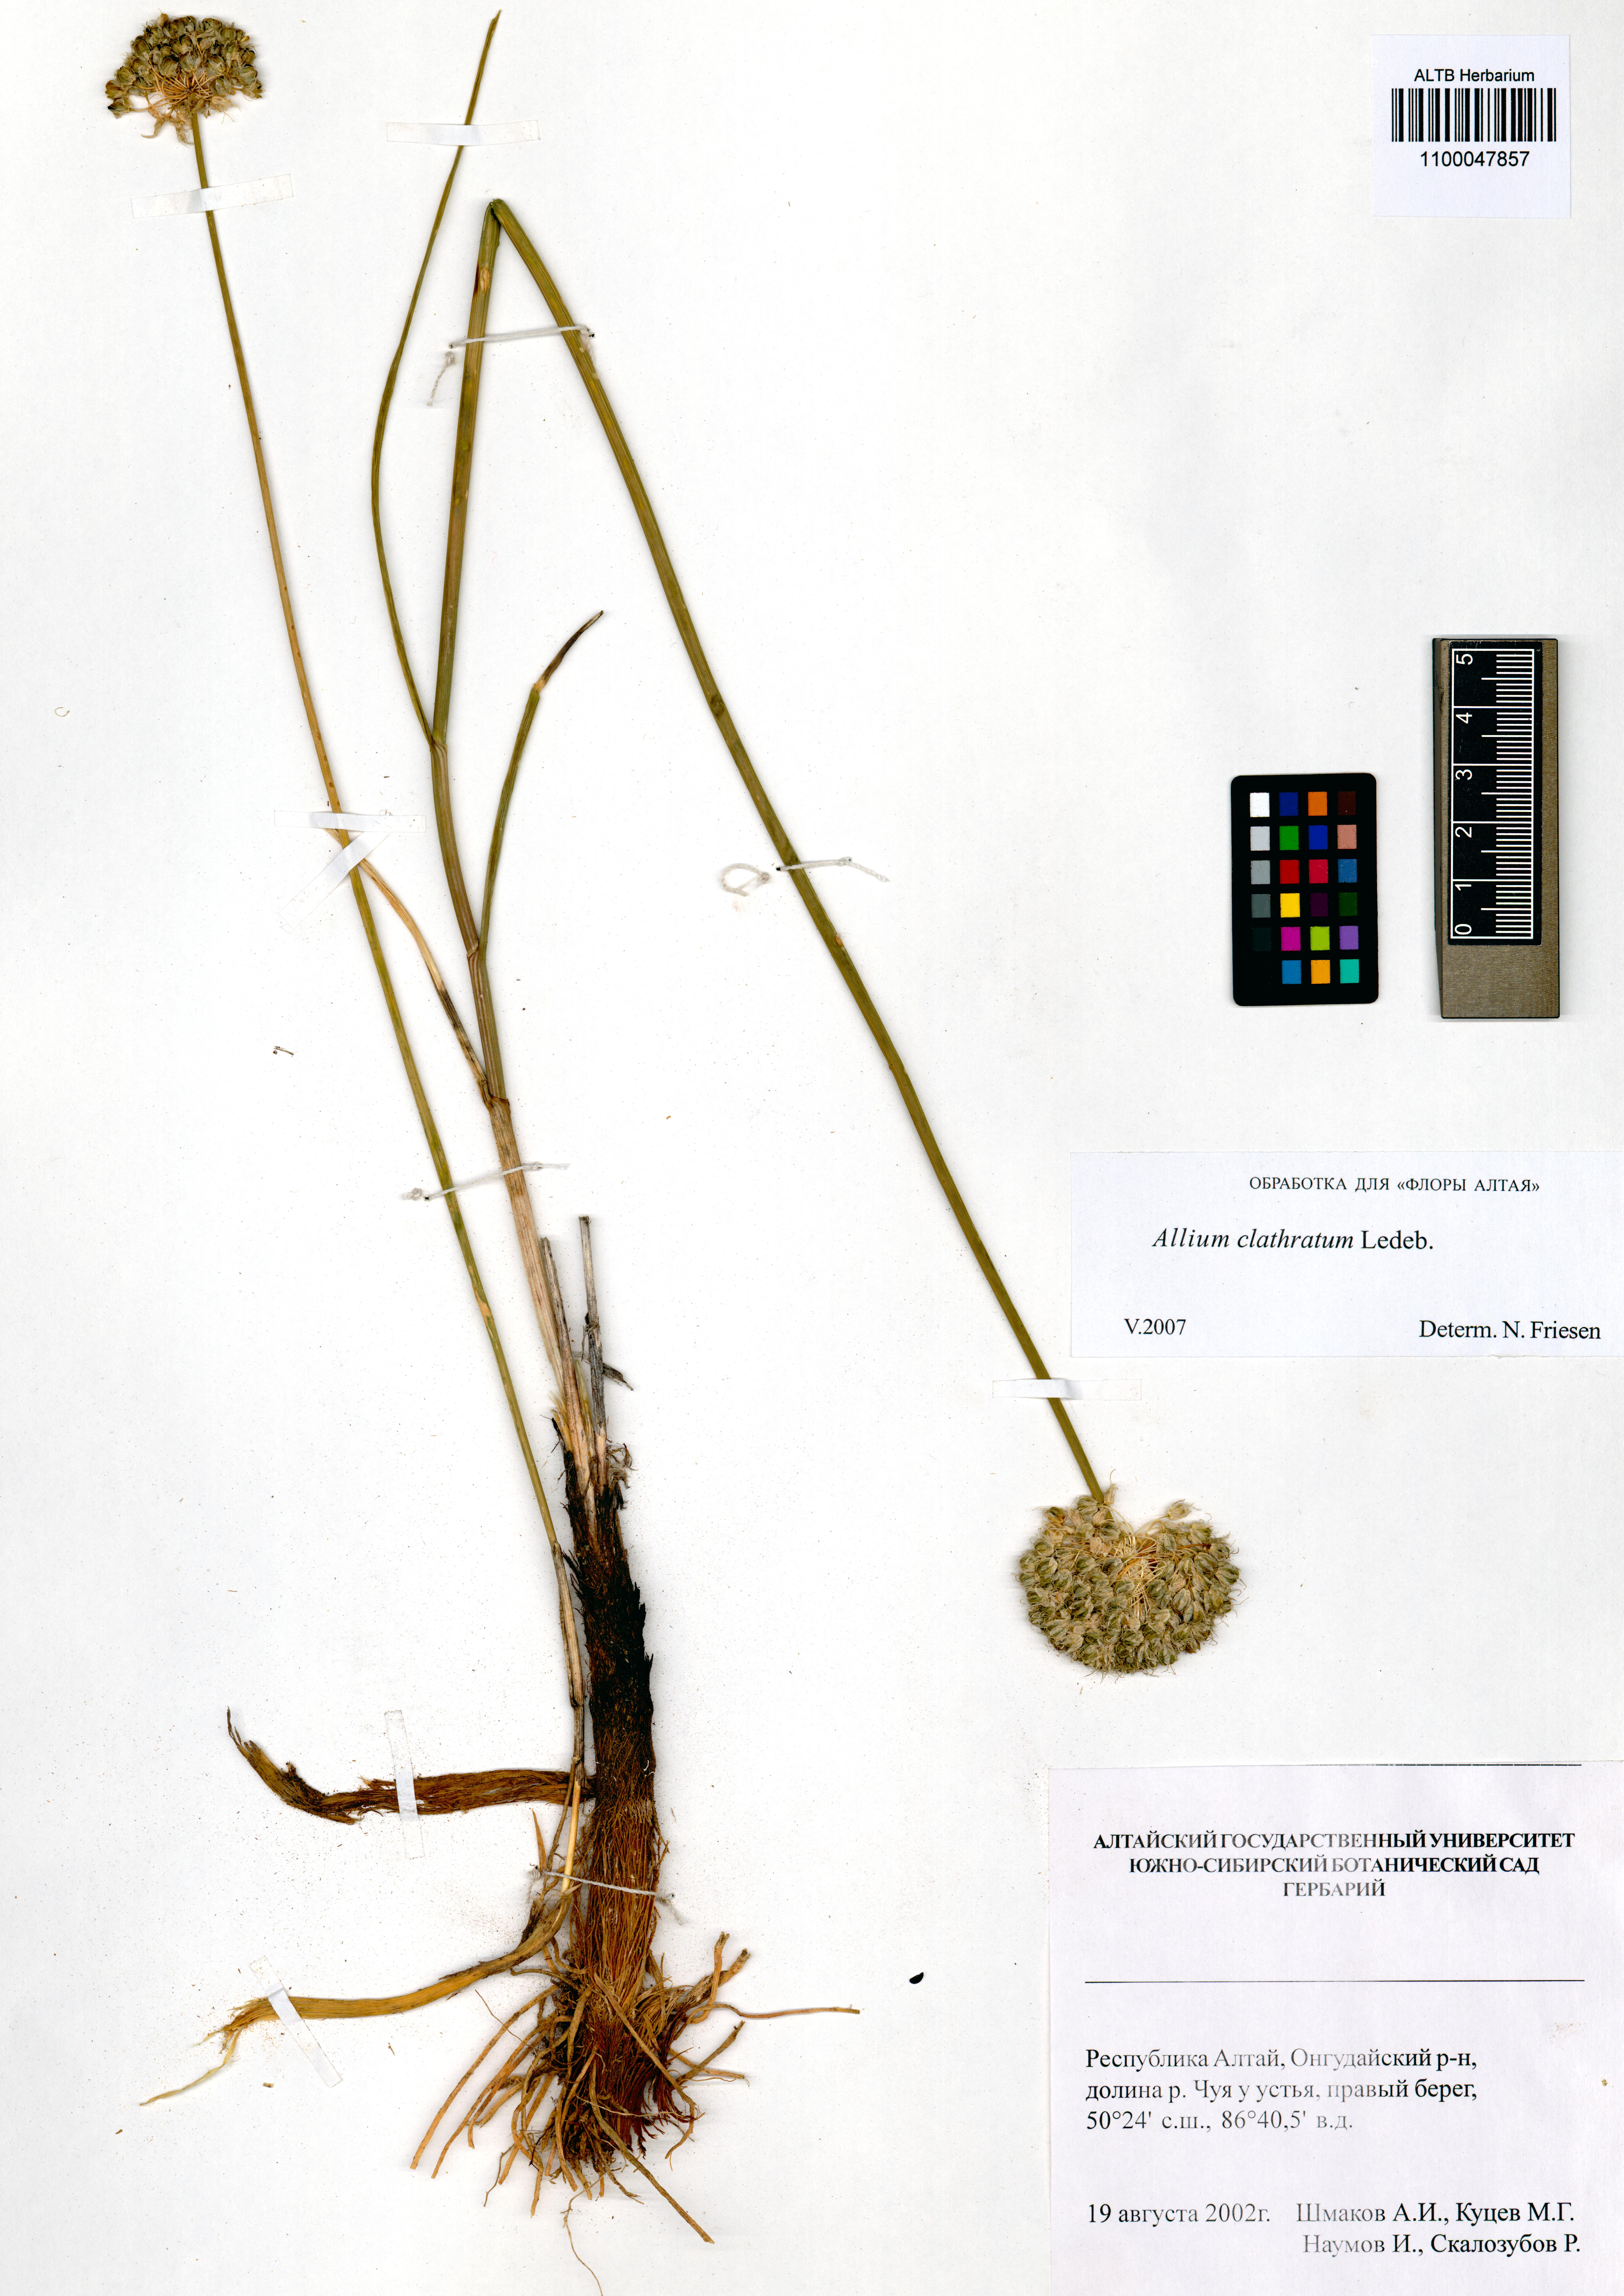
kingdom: Plantae
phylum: Tracheophyta
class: Liliopsida
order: Asparagales
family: Amaryllidaceae
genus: Allium
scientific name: Allium clathratum
